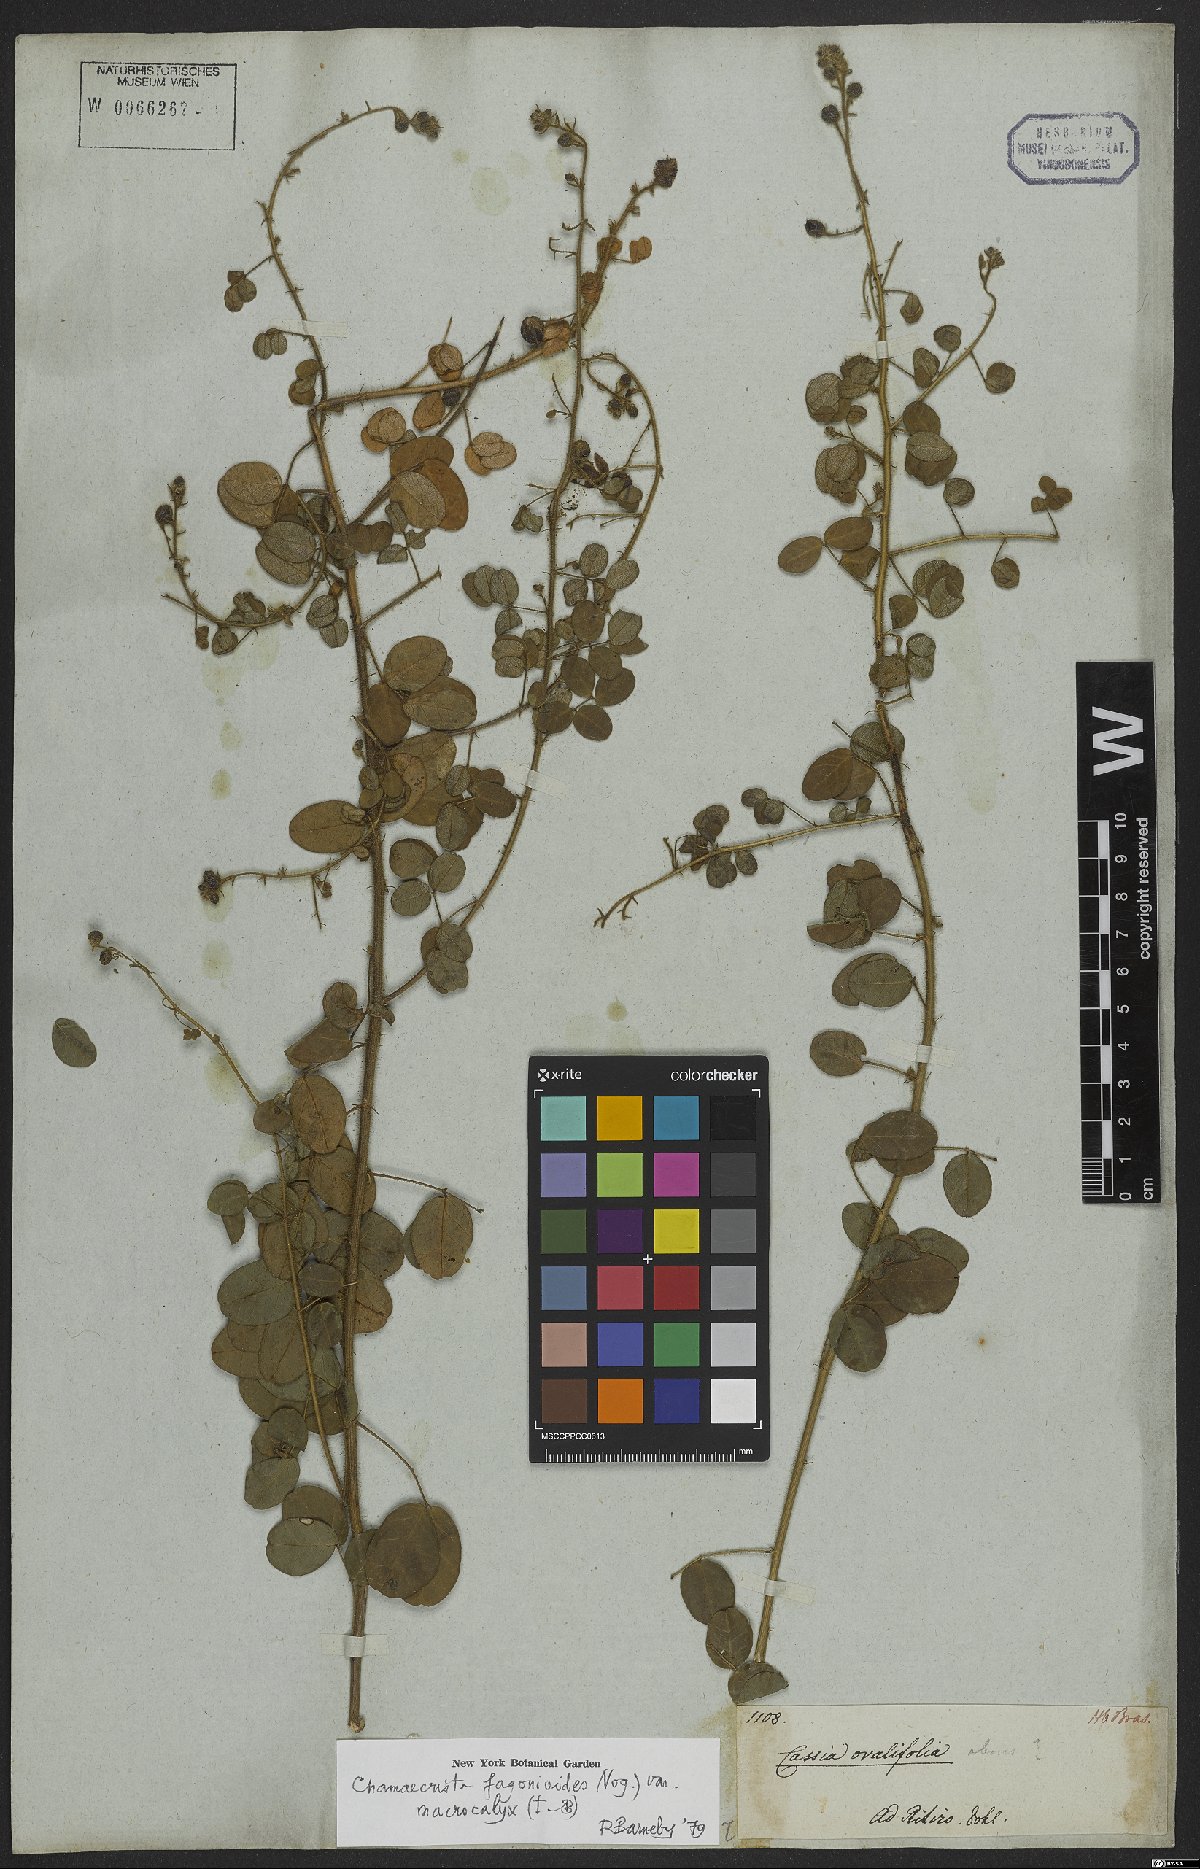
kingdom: Plantae
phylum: Tracheophyta
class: Magnoliopsida
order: Fabales
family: Fabaceae
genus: Chamaecrista
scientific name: Chamaecrista fagonioides
